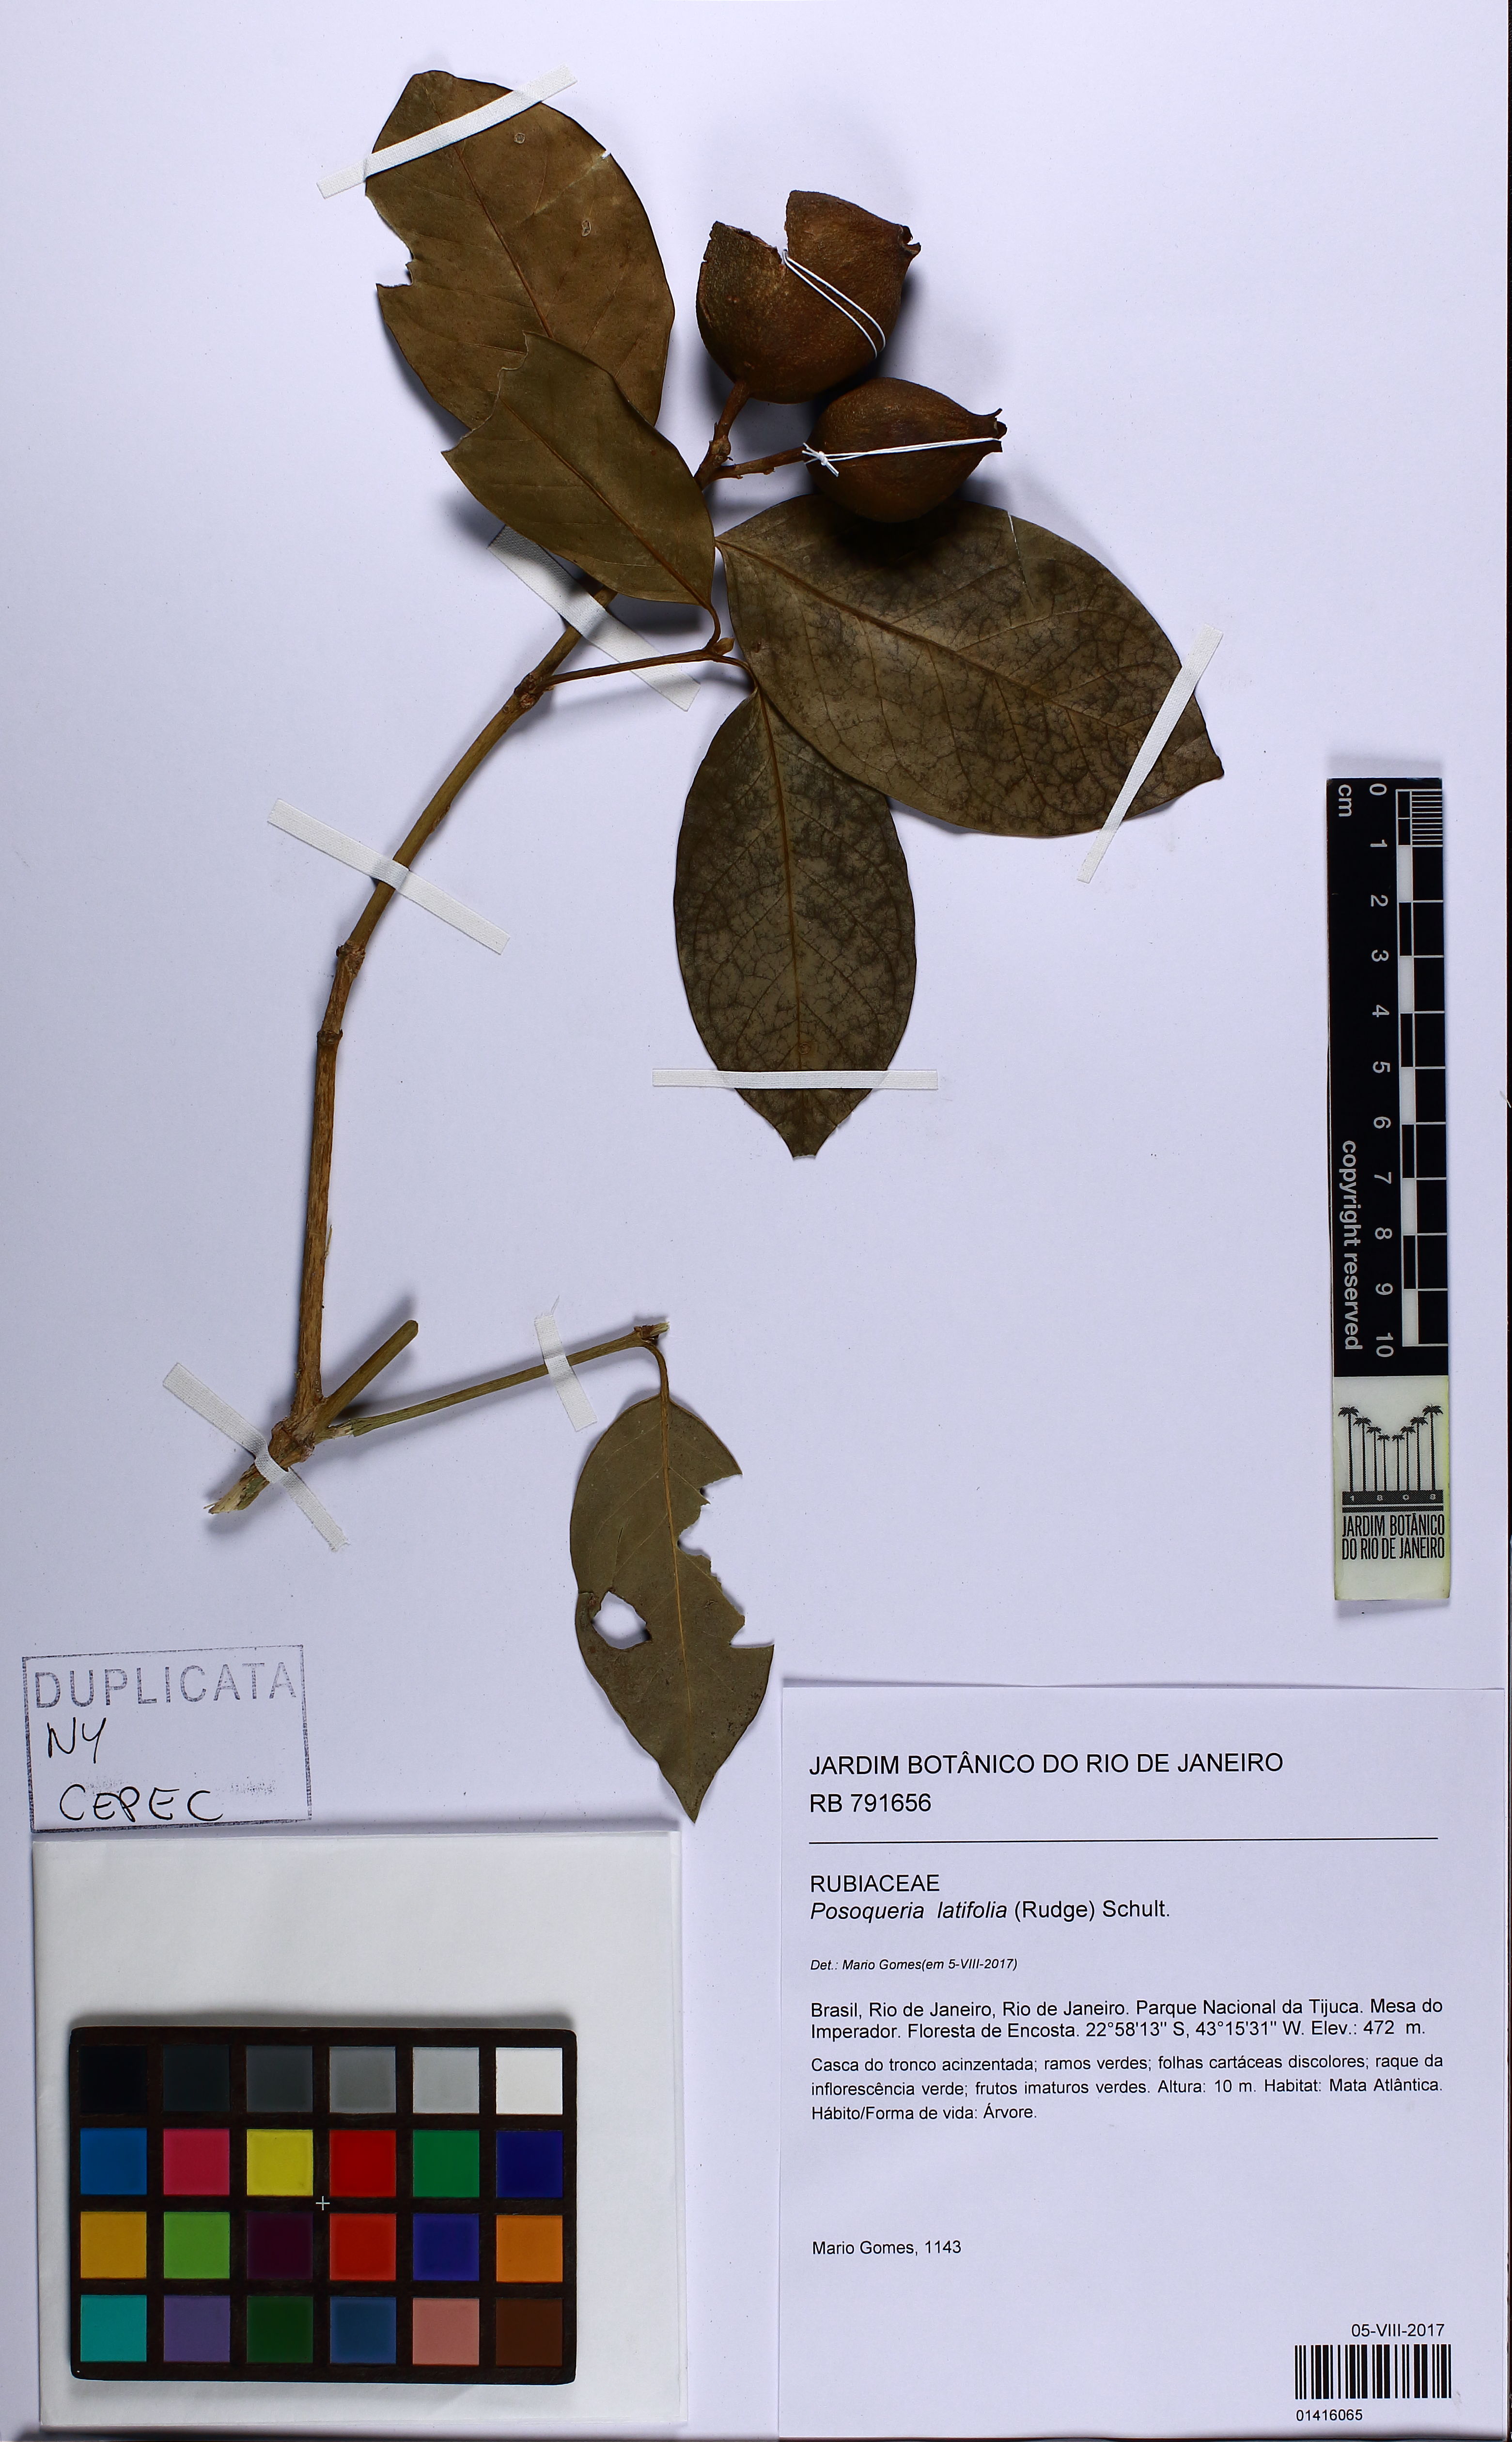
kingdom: Plantae
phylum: Tracheophyta
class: Magnoliopsida
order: Gentianales
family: Rubiaceae
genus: Posoqueria
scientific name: Posoqueria latifolia
